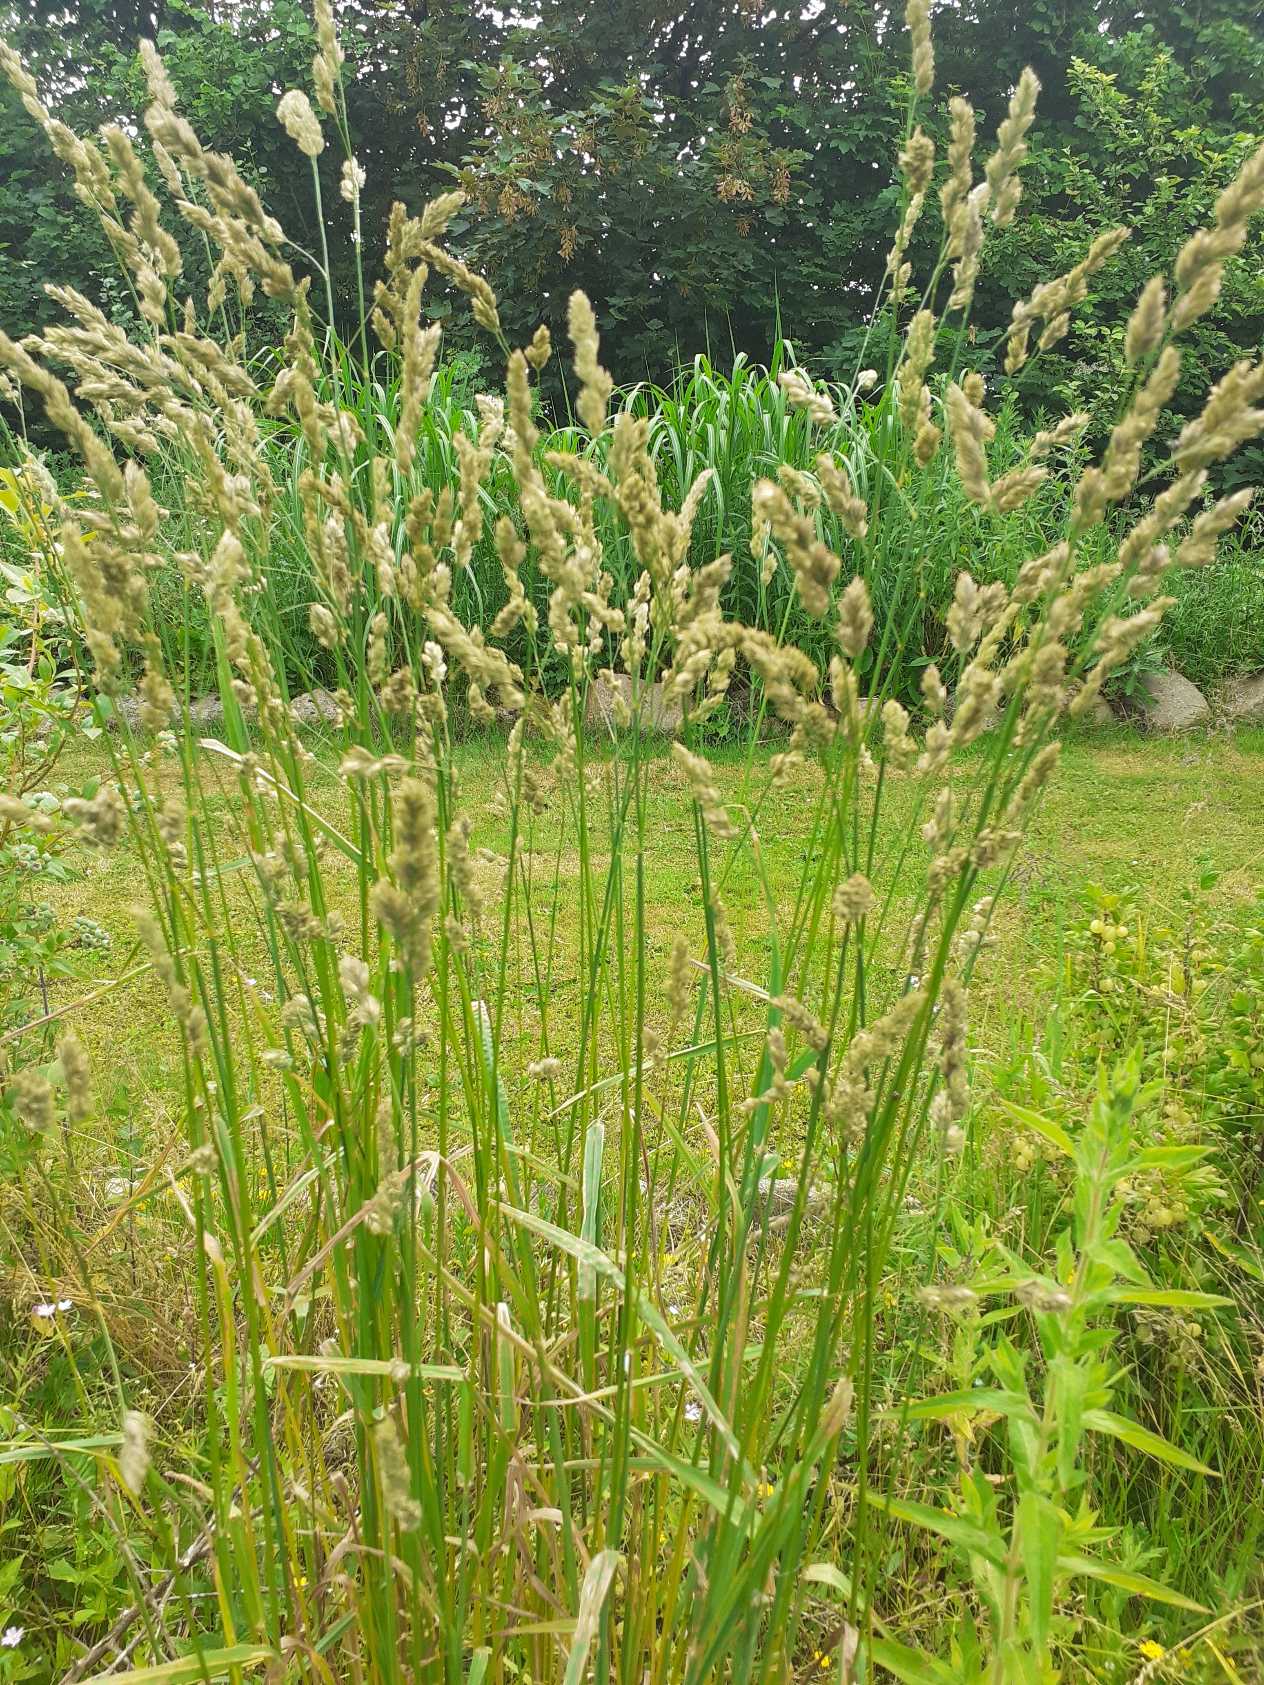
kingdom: Plantae
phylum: Tracheophyta
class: Liliopsida
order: Poales
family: Poaceae
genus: Dactylis
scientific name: Dactylis glomerata
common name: Almindelig hundegræs
